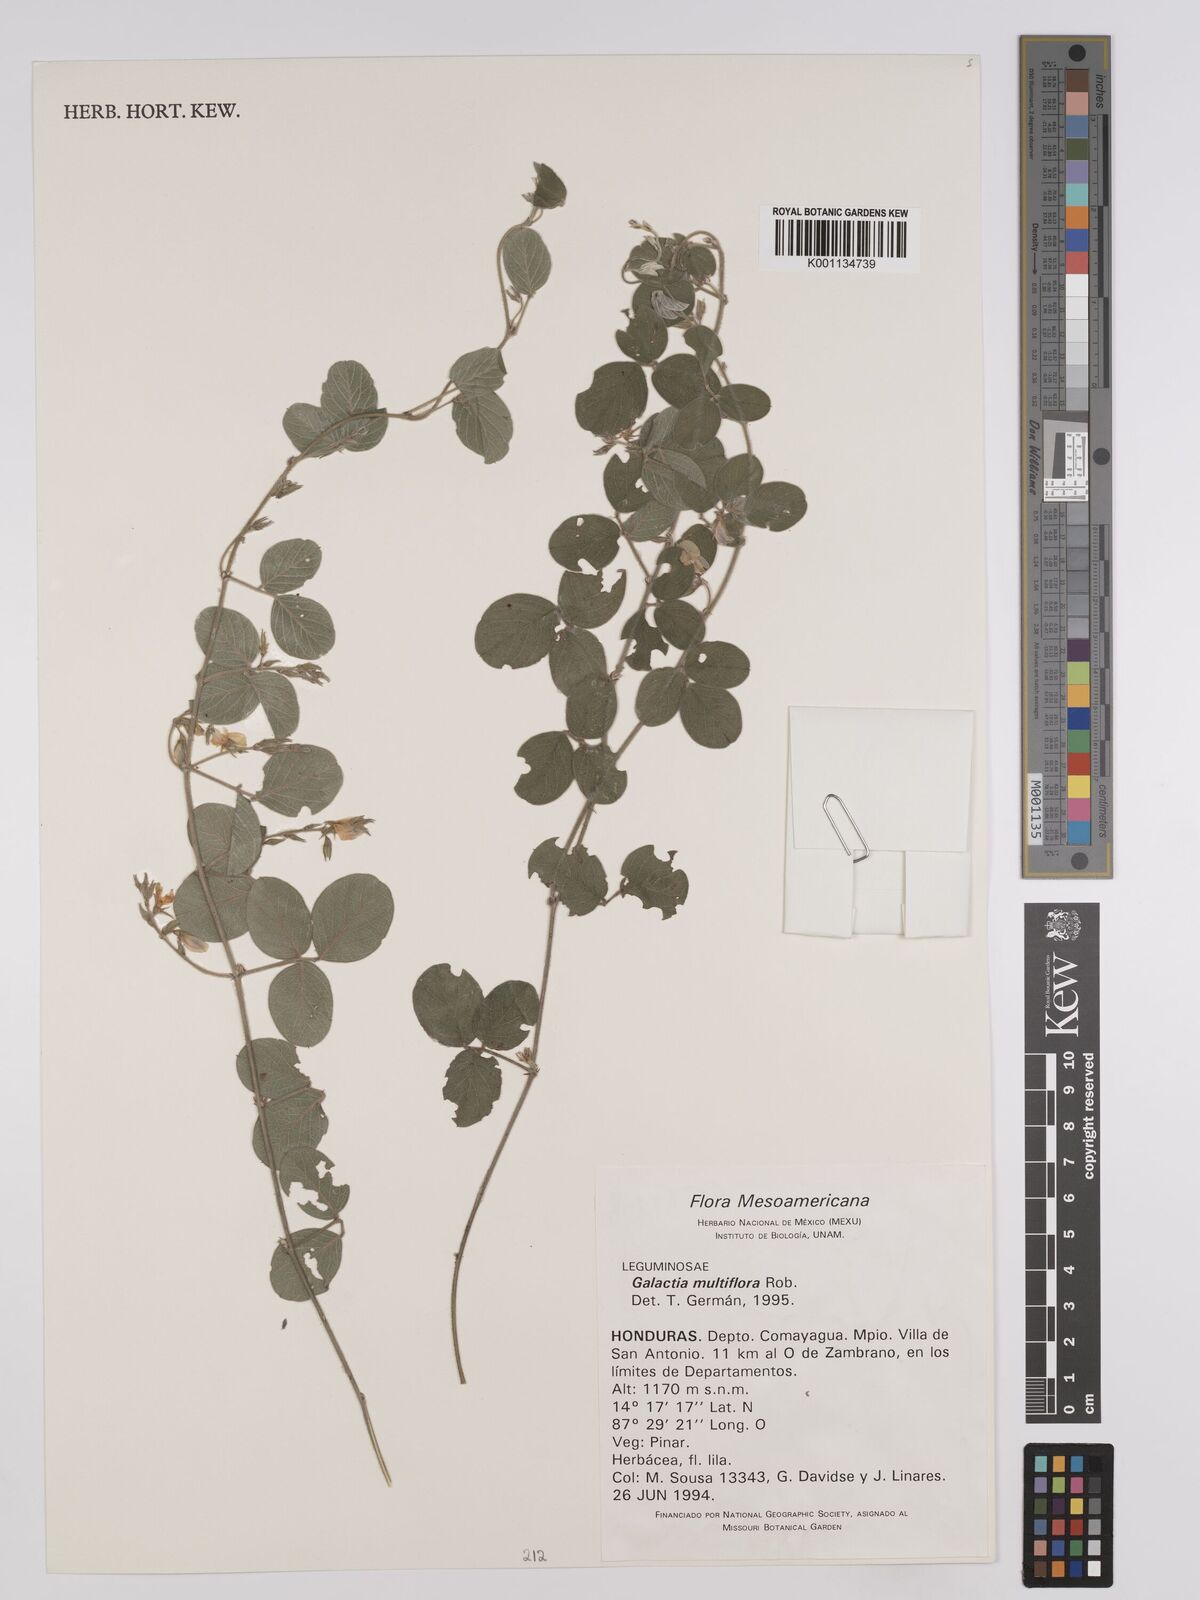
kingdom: Plantae
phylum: Tracheophyta
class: Magnoliopsida
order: Fabales
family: Fabaceae
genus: Galactia
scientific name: Galactia multiflora
